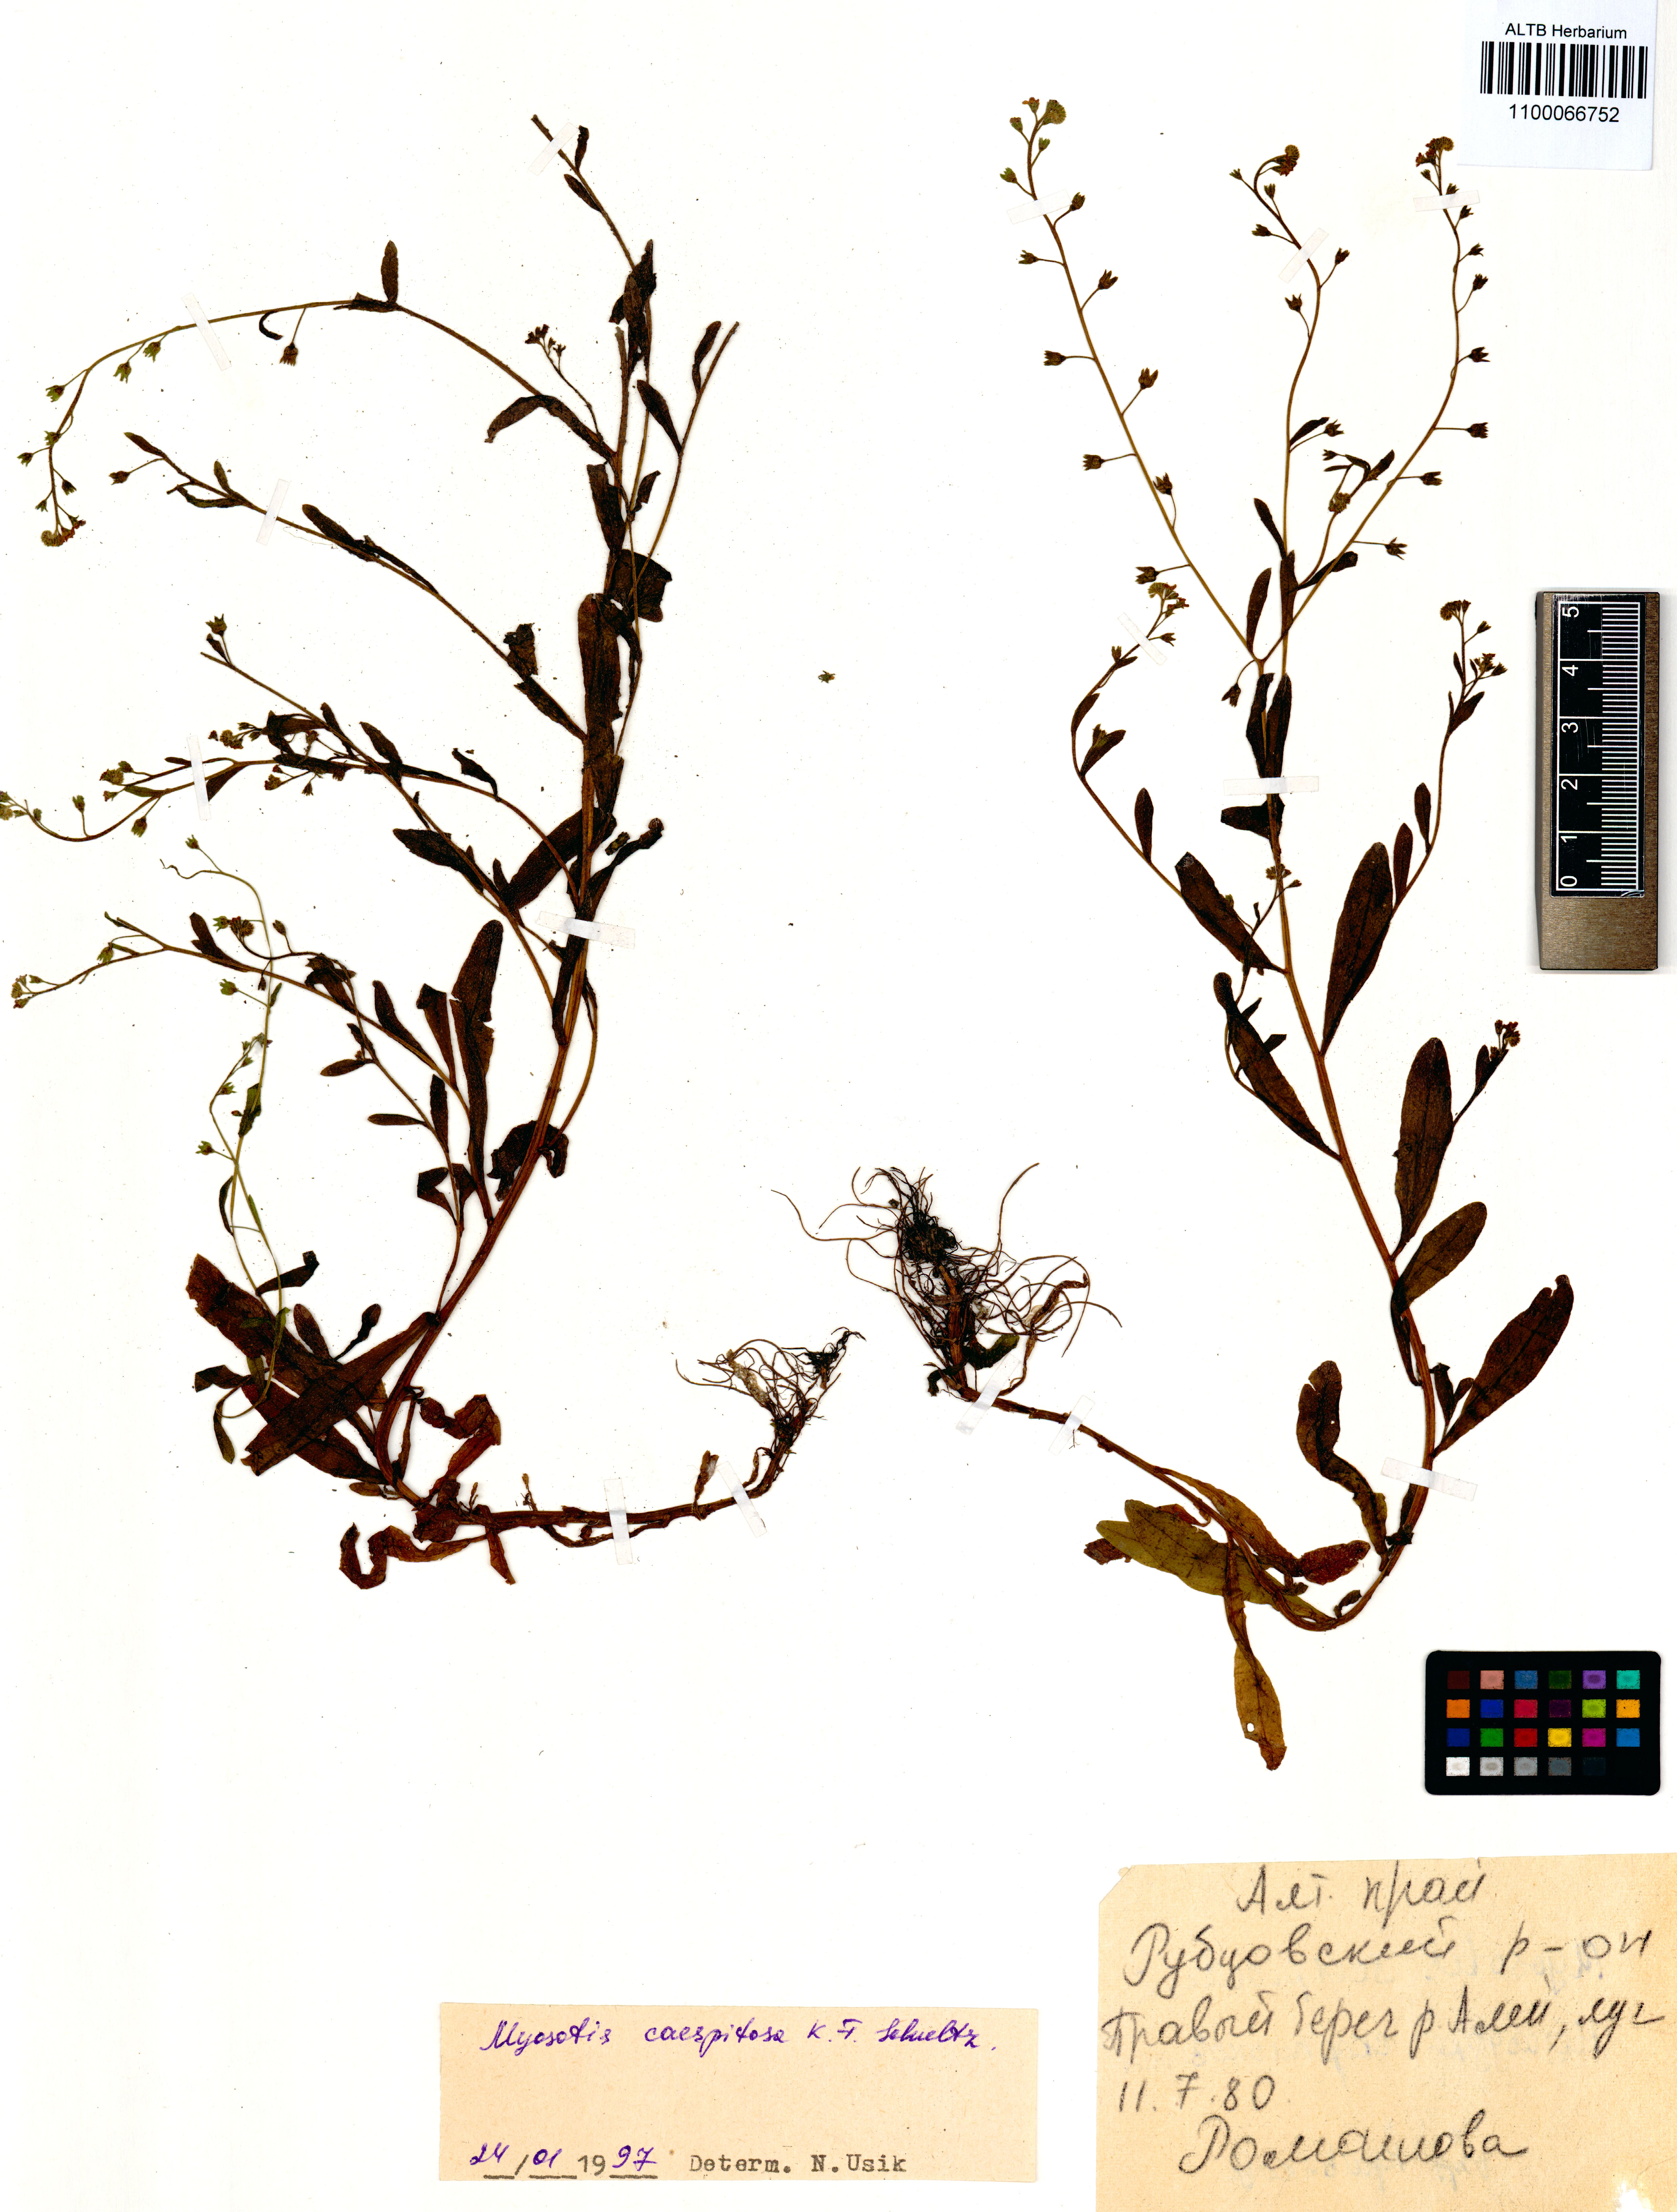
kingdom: Plantae
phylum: Tracheophyta
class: Magnoliopsida
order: Boraginales
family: Boraginaceae
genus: Myosotis
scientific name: Myosotis laxa
